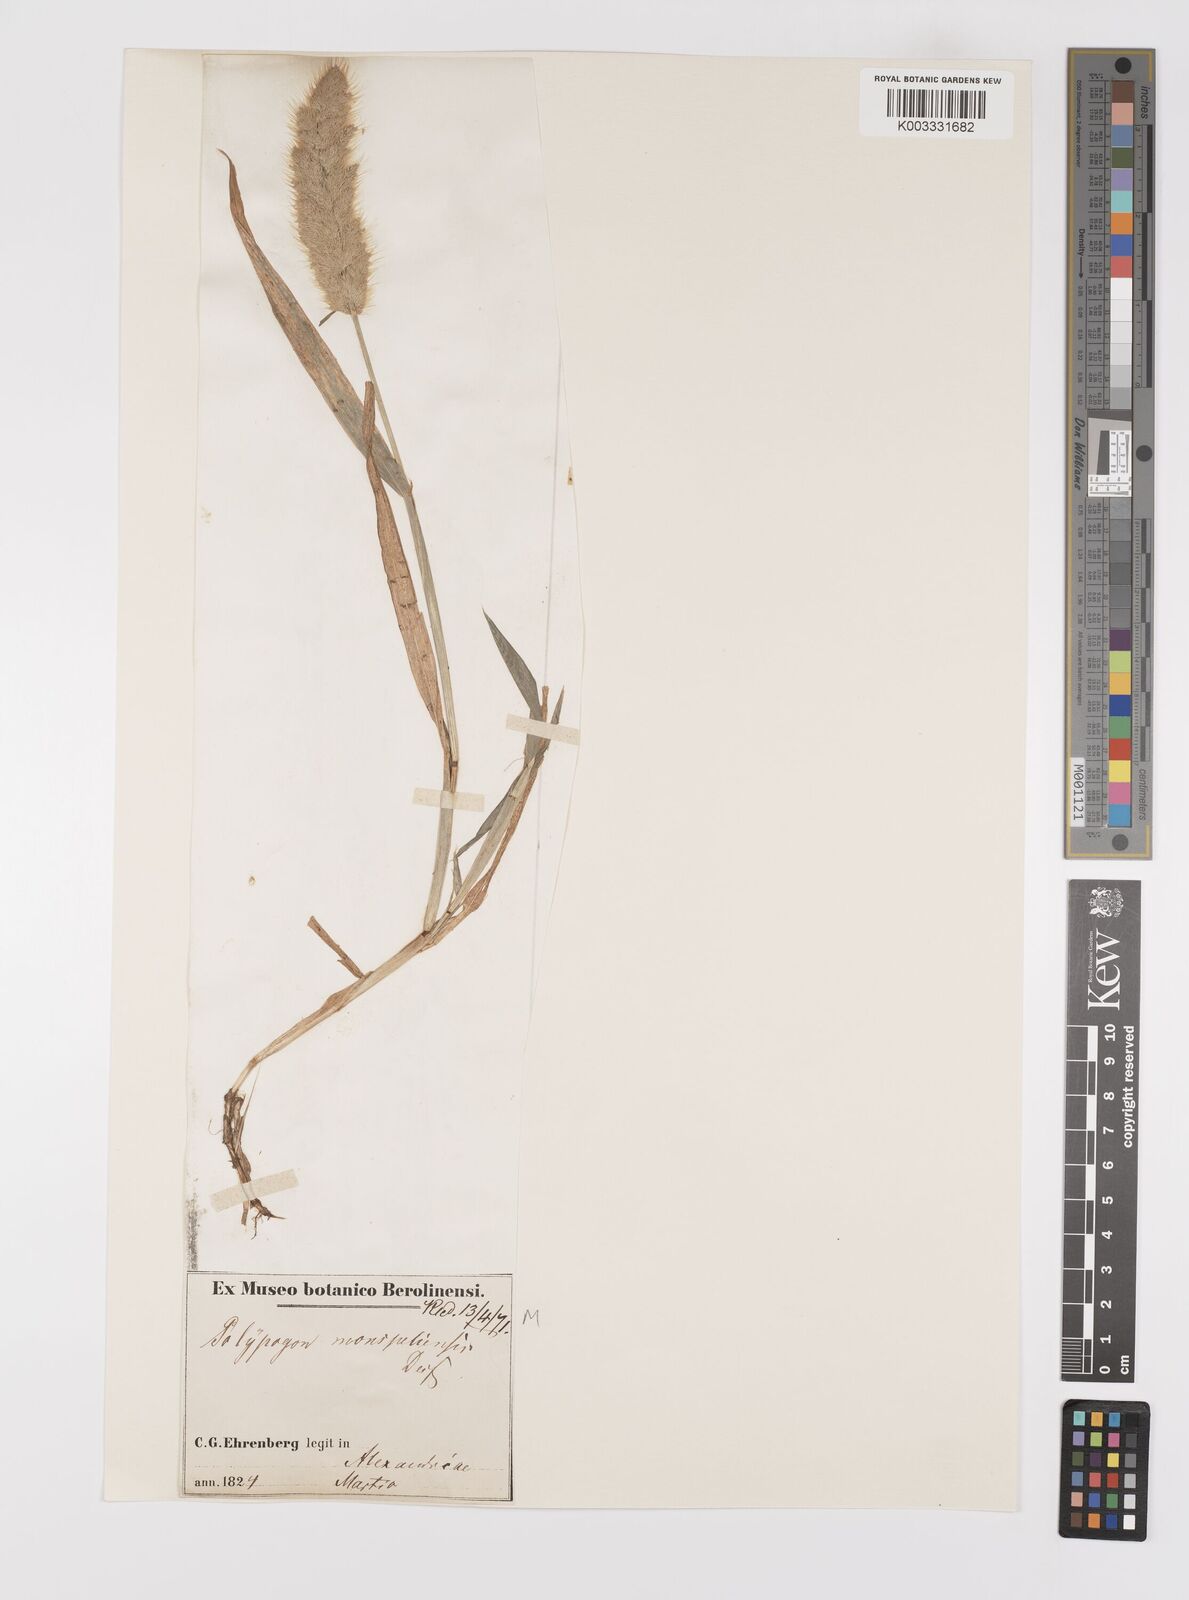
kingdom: Plantae
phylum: Tracheophyta
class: Liliopsida
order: Poales
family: Poaceae
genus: Polypogon
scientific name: Polypogon monspeliensis
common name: Annual rabbitsfoot grass
